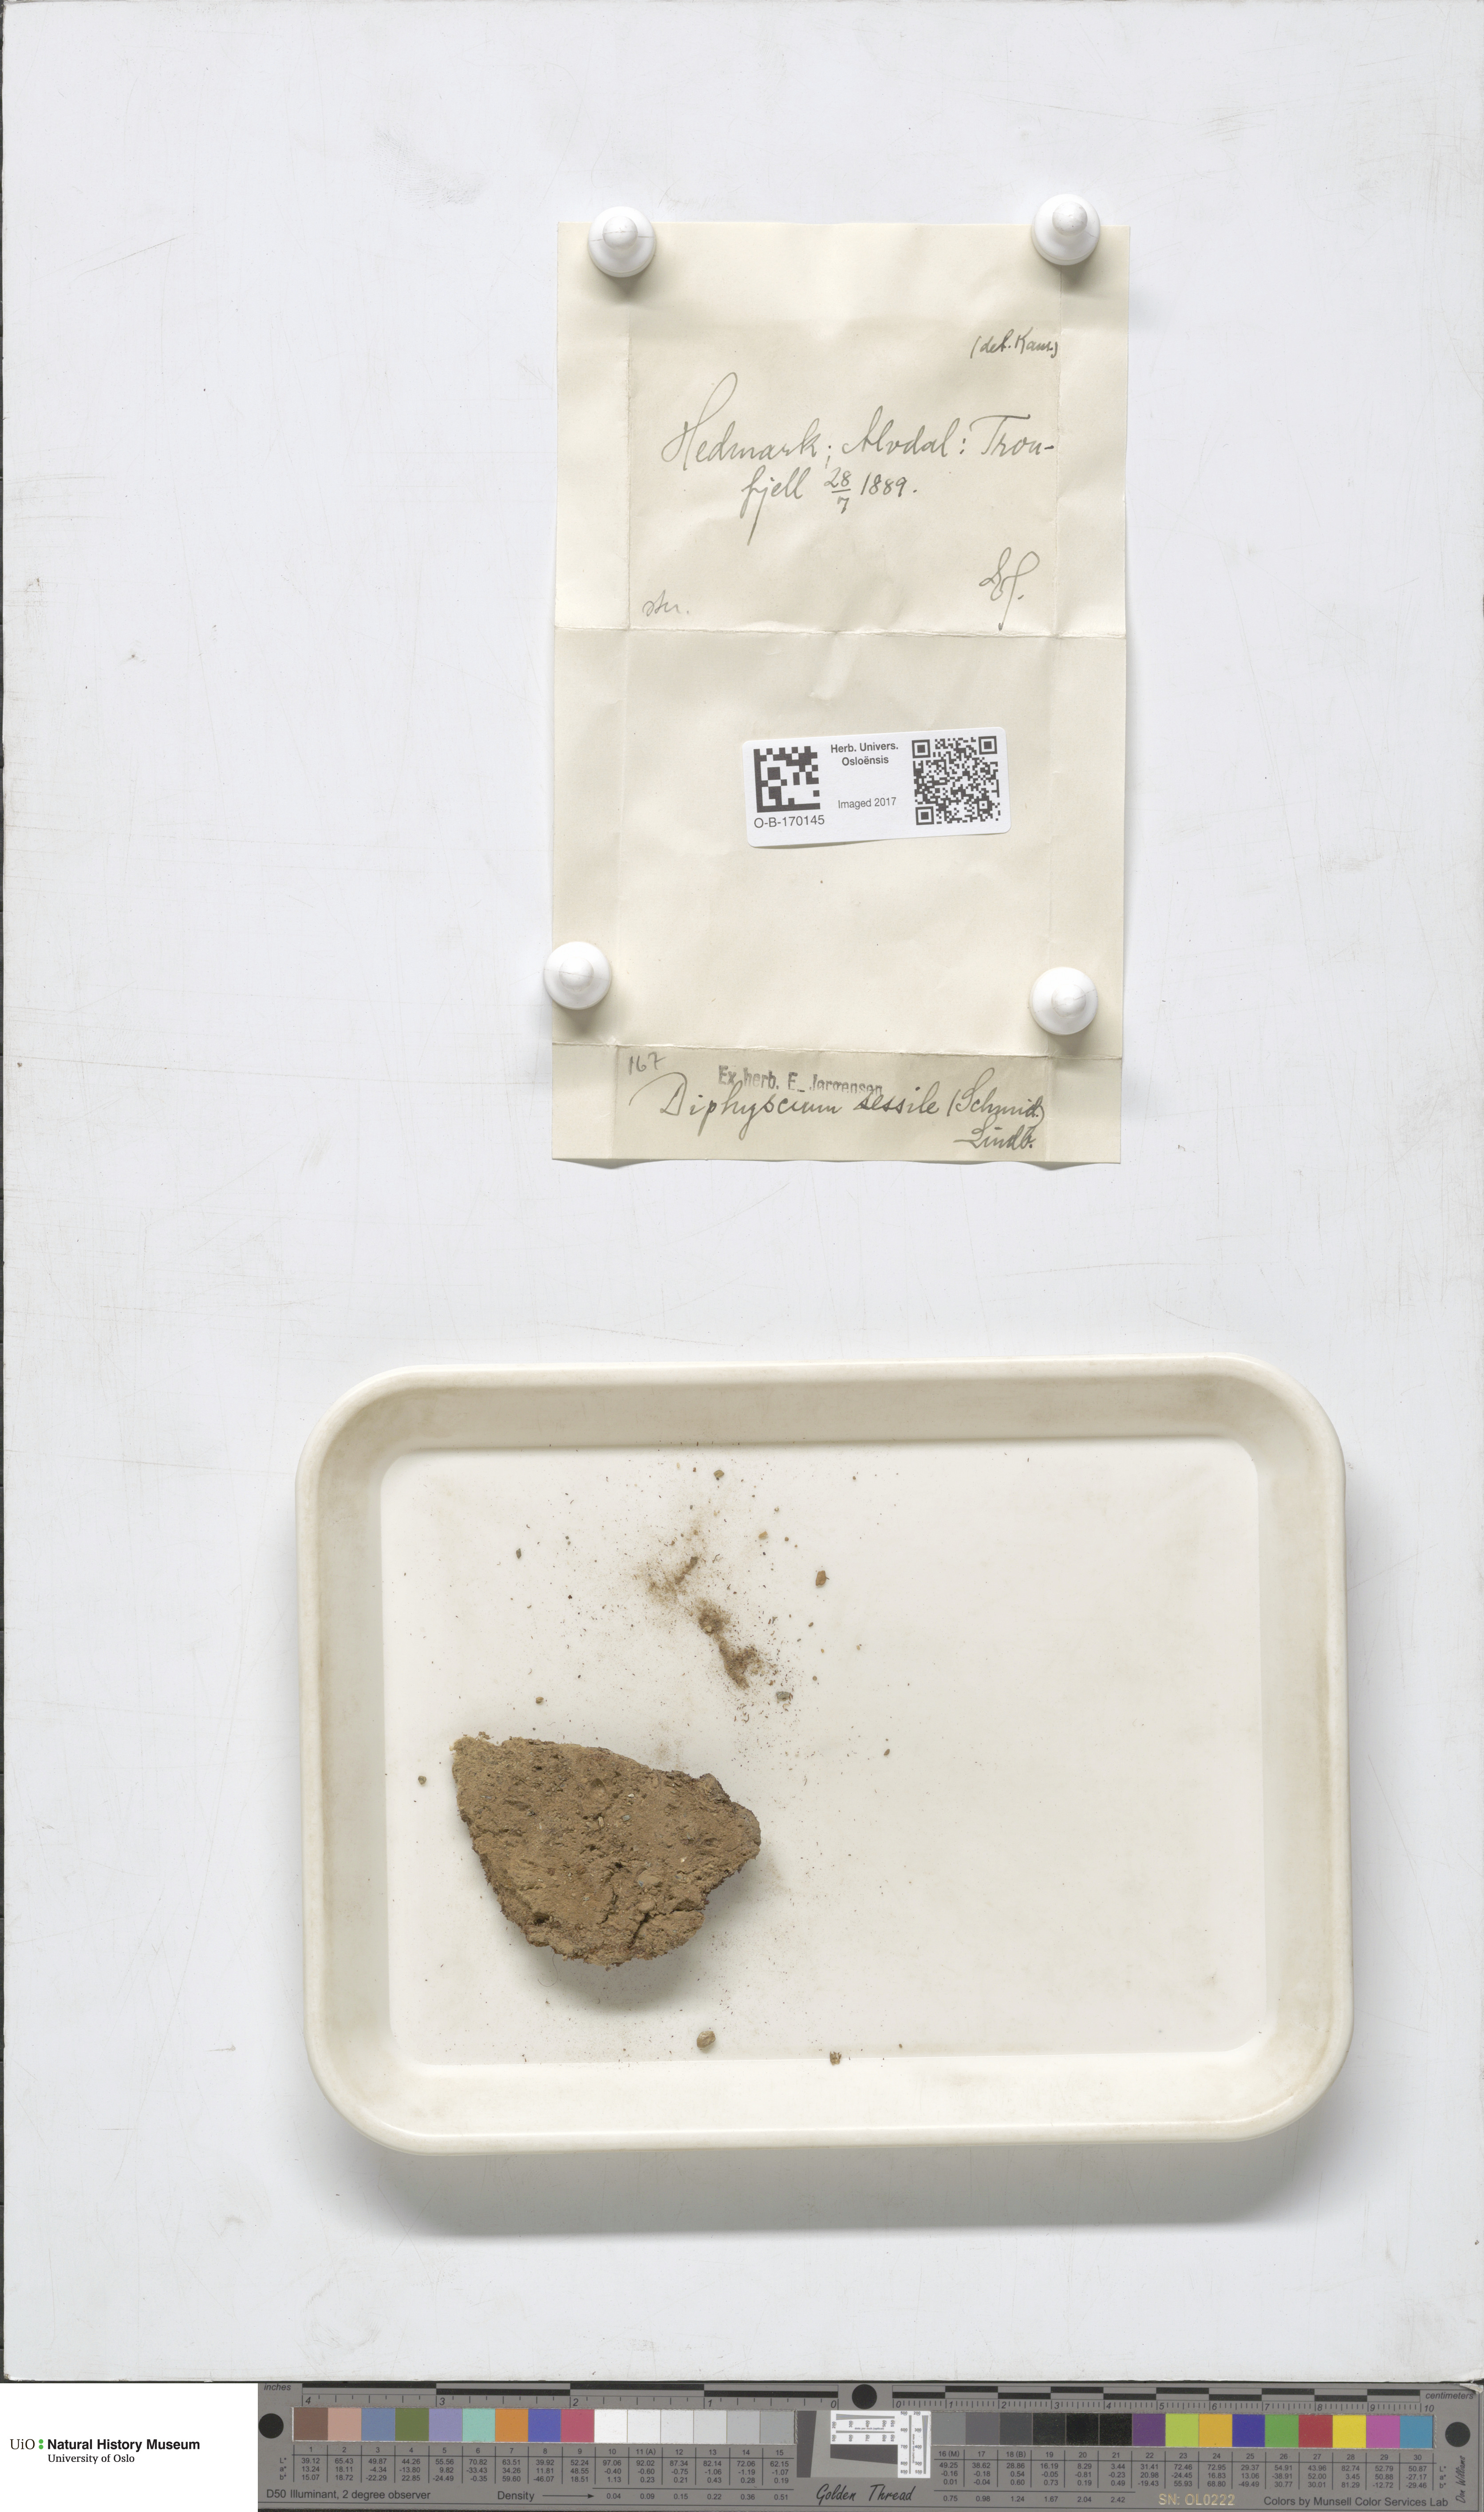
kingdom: Plantae
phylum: Bryophyta
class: Bryopsida
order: Diphysciales
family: Diphysciaceae
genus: Diphyscium
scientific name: Diphyscium foliosum
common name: Nut moss
